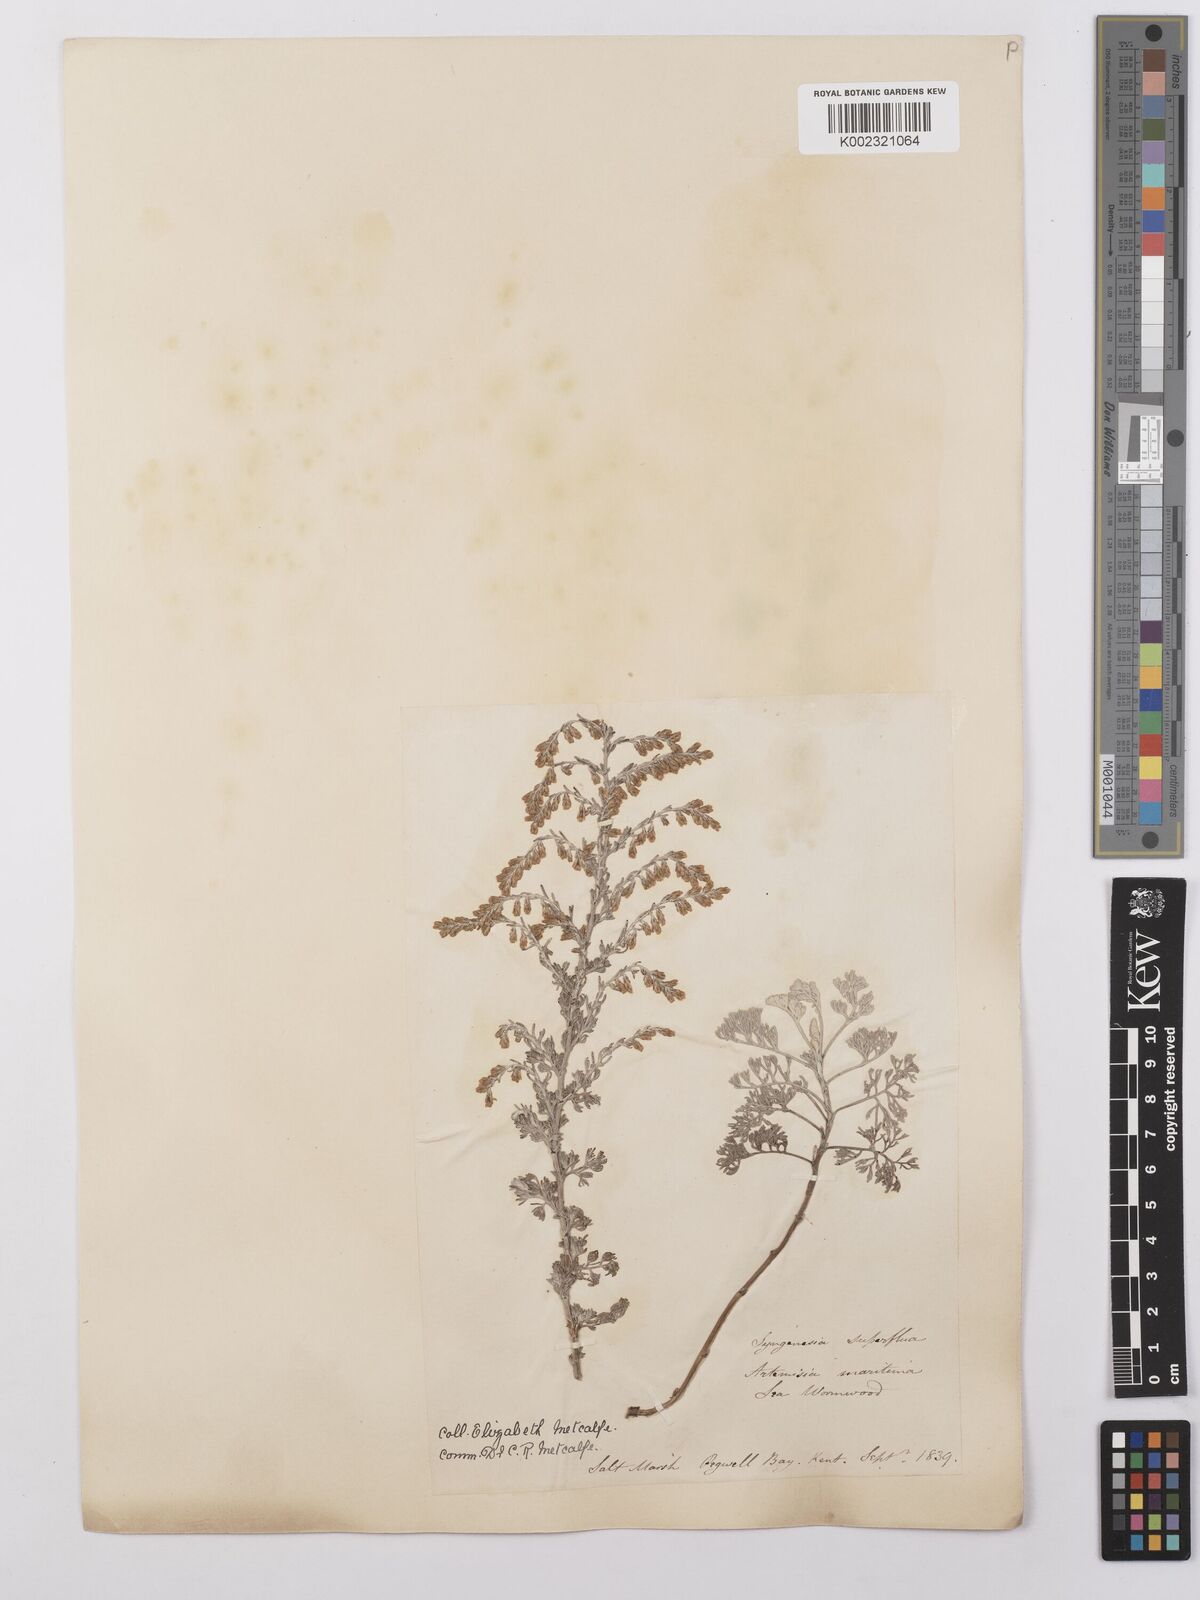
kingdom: Plantae
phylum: Tracheophyta
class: Magnoliopsida
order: Asterales
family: Asteraceae
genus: Artemisia
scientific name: Artemisia maritima
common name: Wormseed
